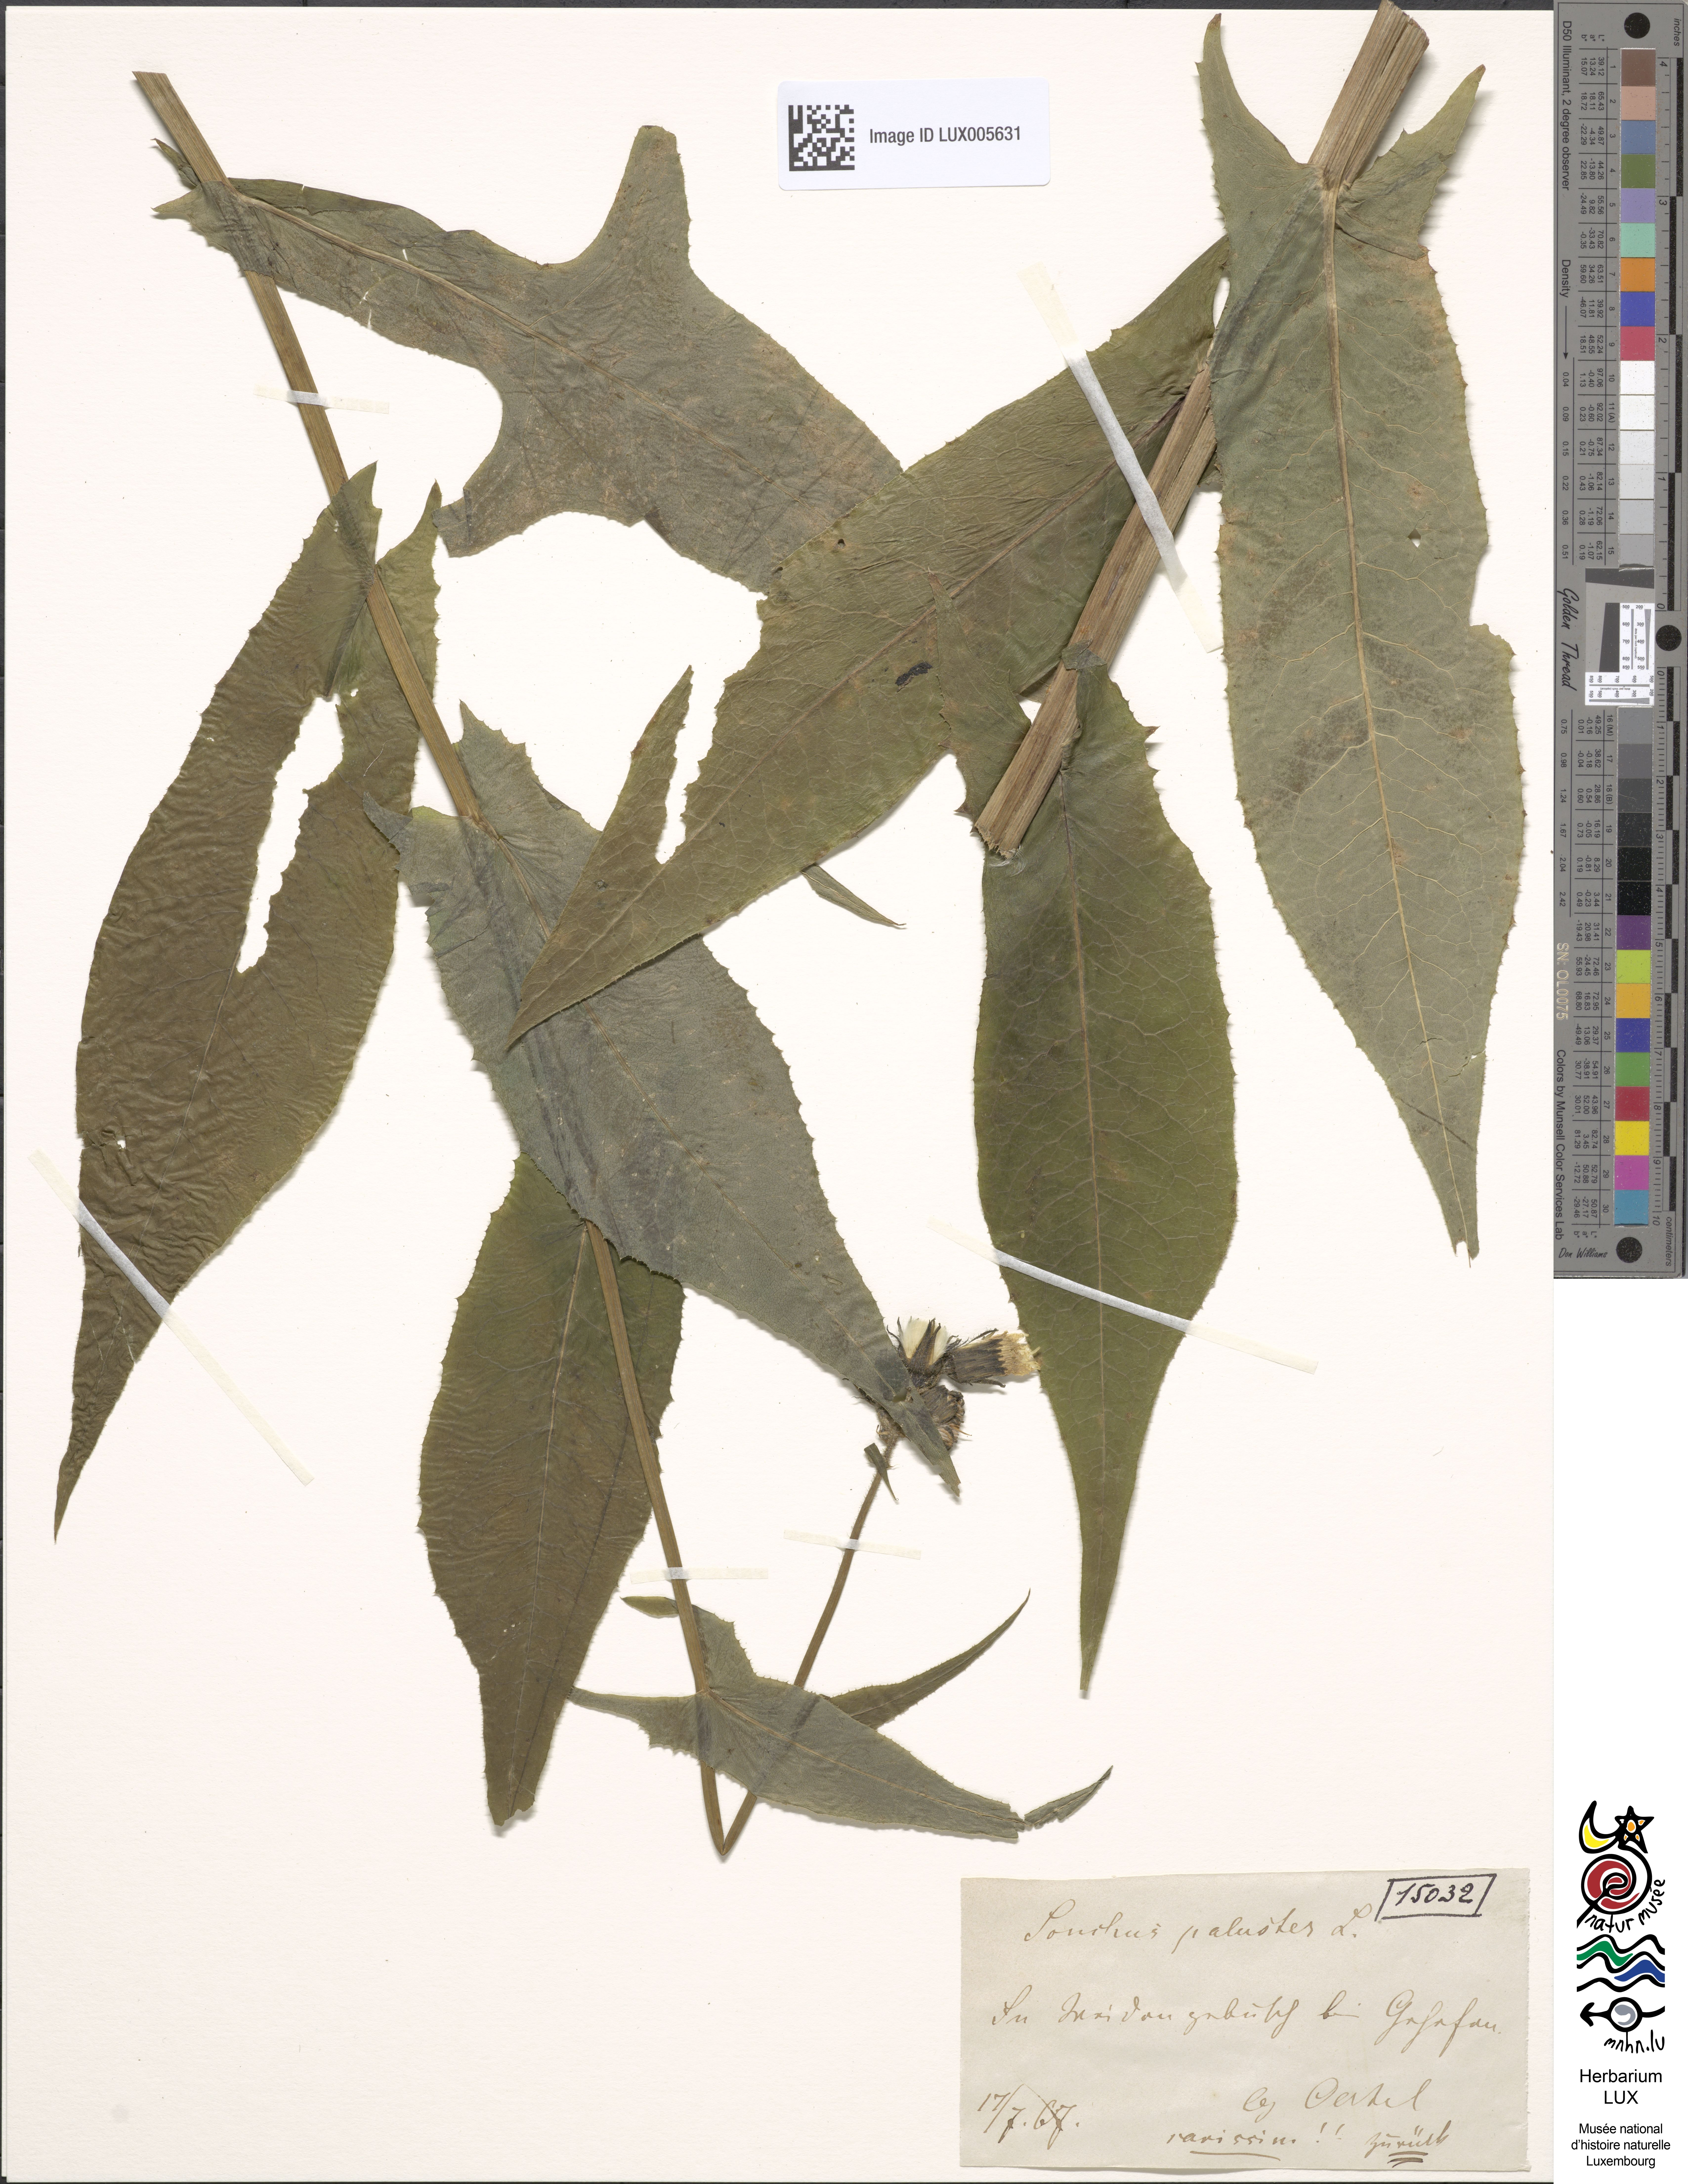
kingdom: Plantae
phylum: Tracheophyta
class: Magnoliopsida
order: Asterales
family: Asteraceae
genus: Sonchus
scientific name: Sonchus palustris
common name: Marsh sow-thistle
